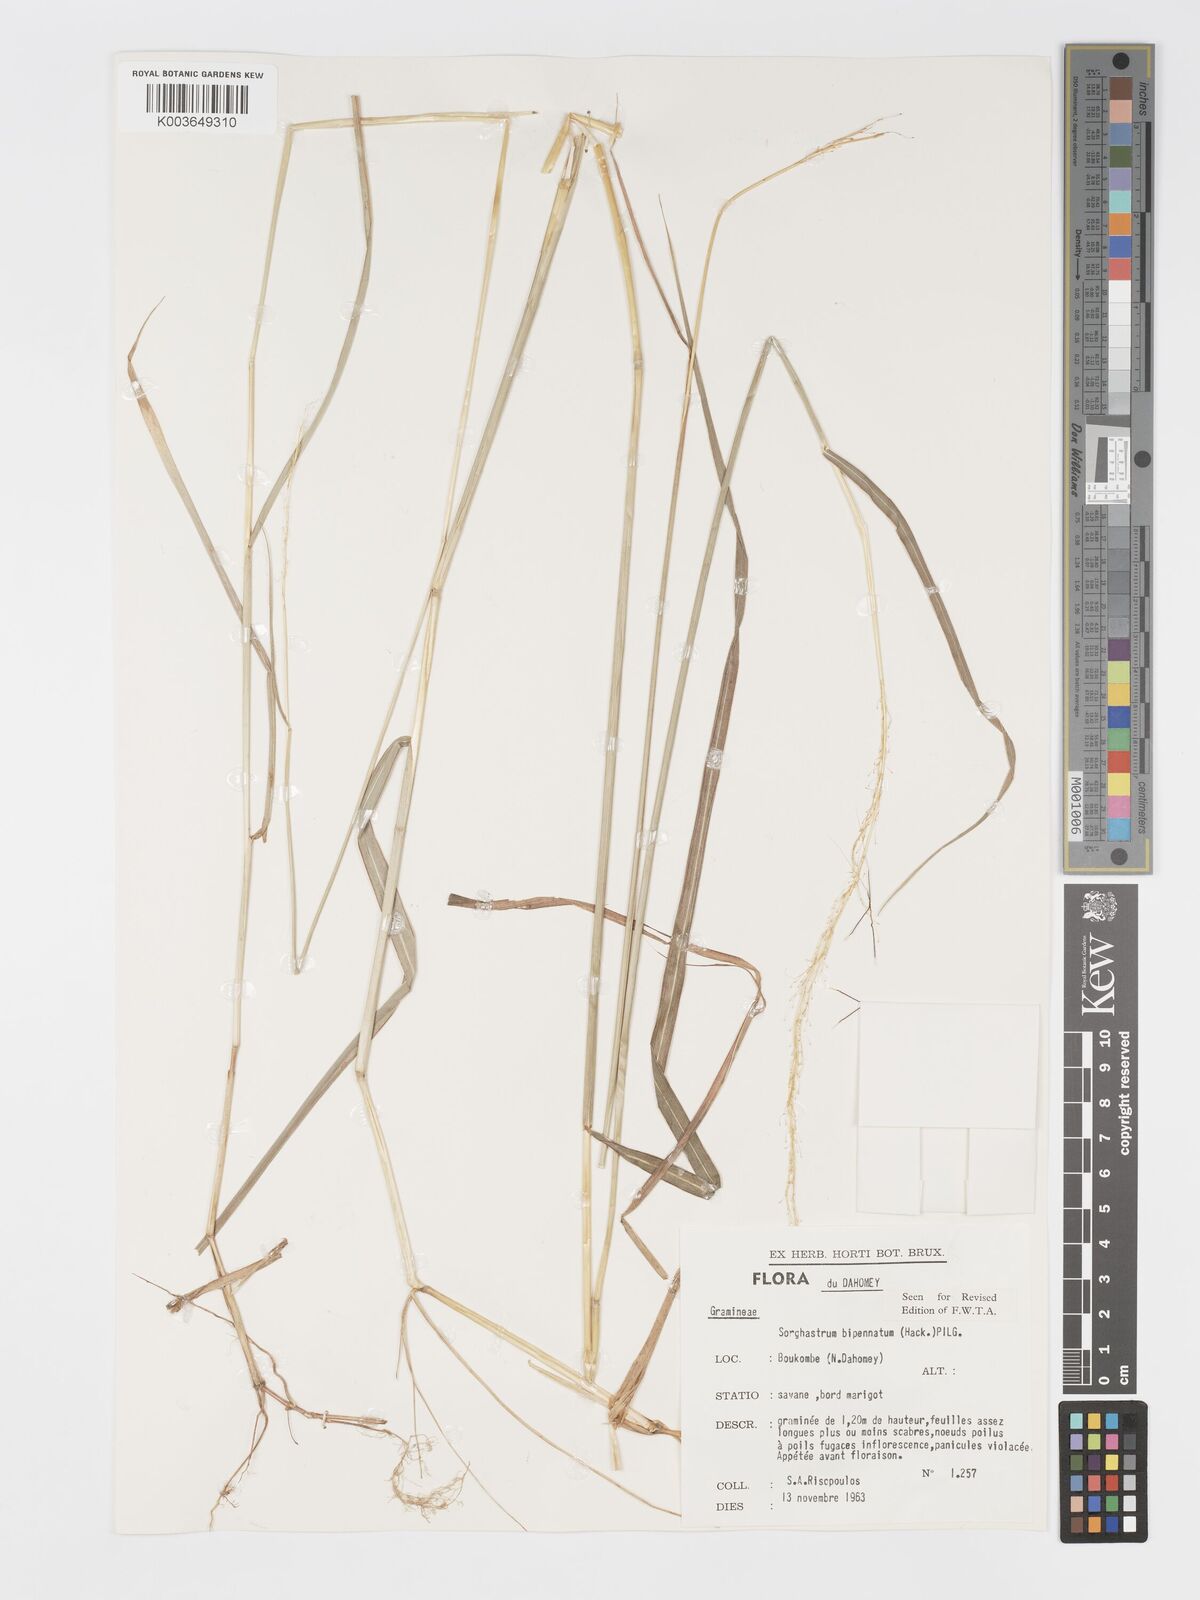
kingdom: Plantae
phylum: Tracheophyta
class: Liliopsida
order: Poales
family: Poaceae
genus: Sorghastrum
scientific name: Sorghastrum incompletum
